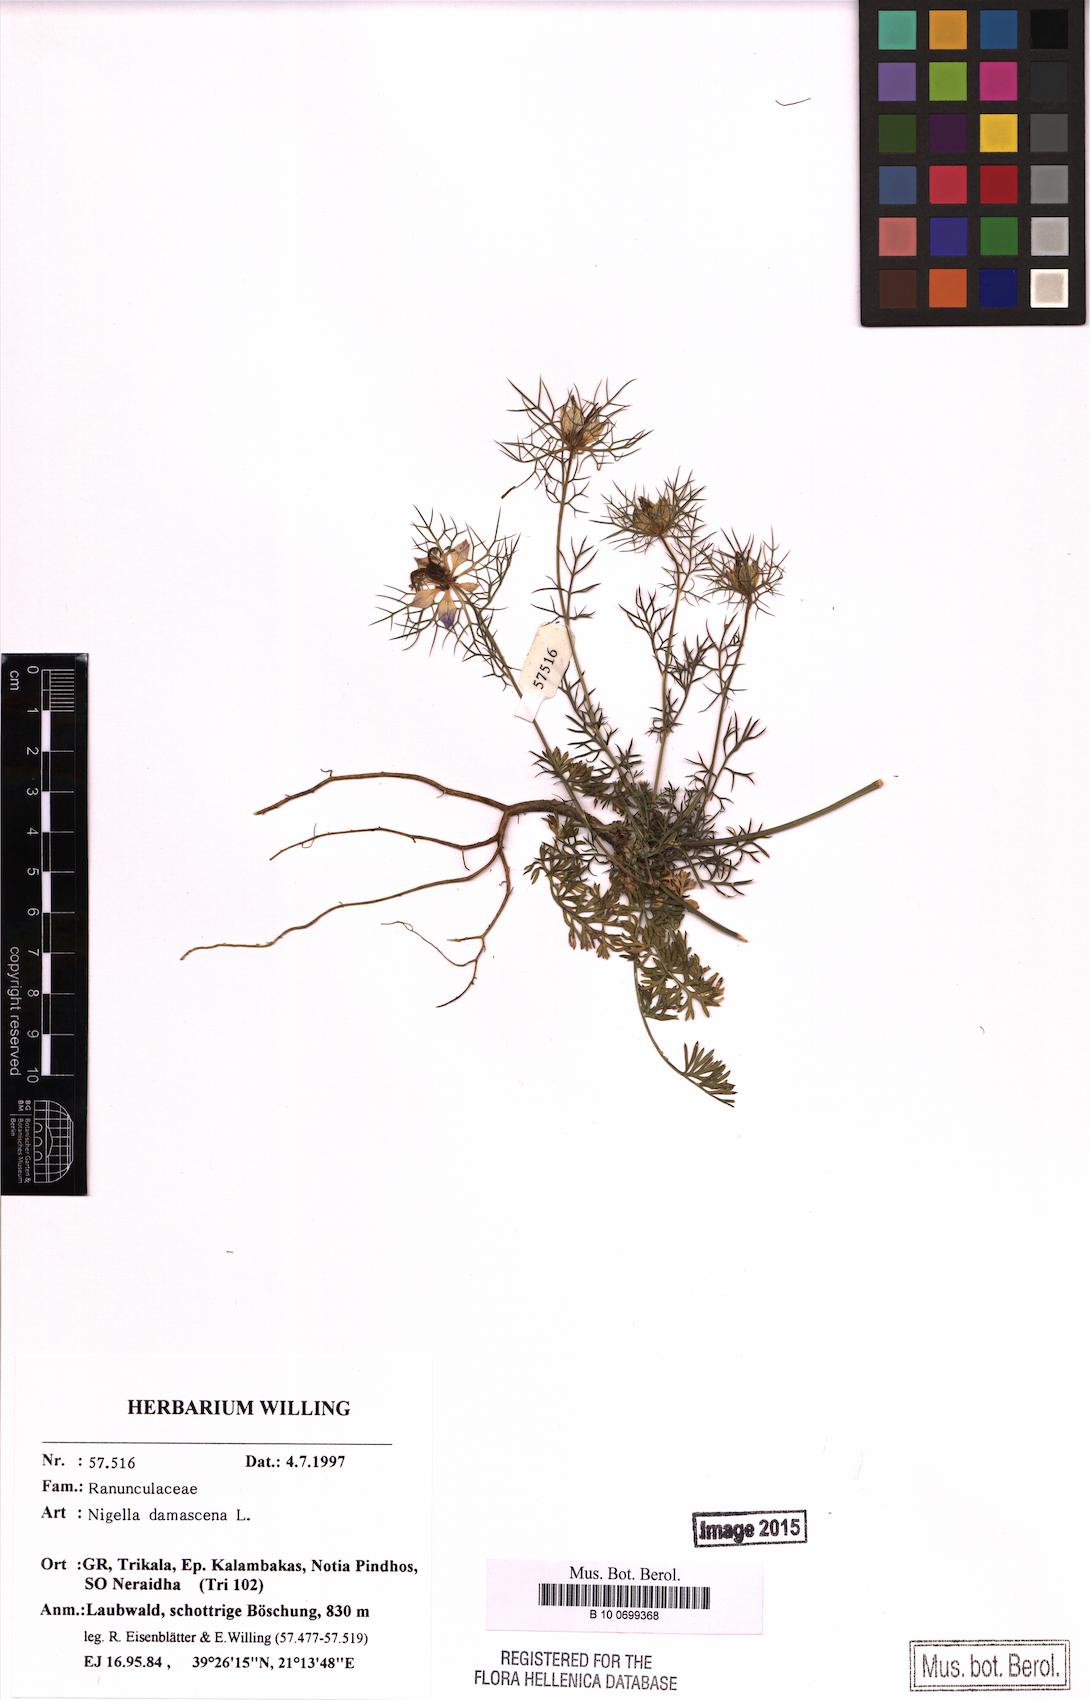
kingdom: Plantae
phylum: Tracheophyta
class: Magnoliopsida
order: Ranunculales
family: Ranunculaceae
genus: Nigella
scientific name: Nigella damascena
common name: Love-in-a-mist
